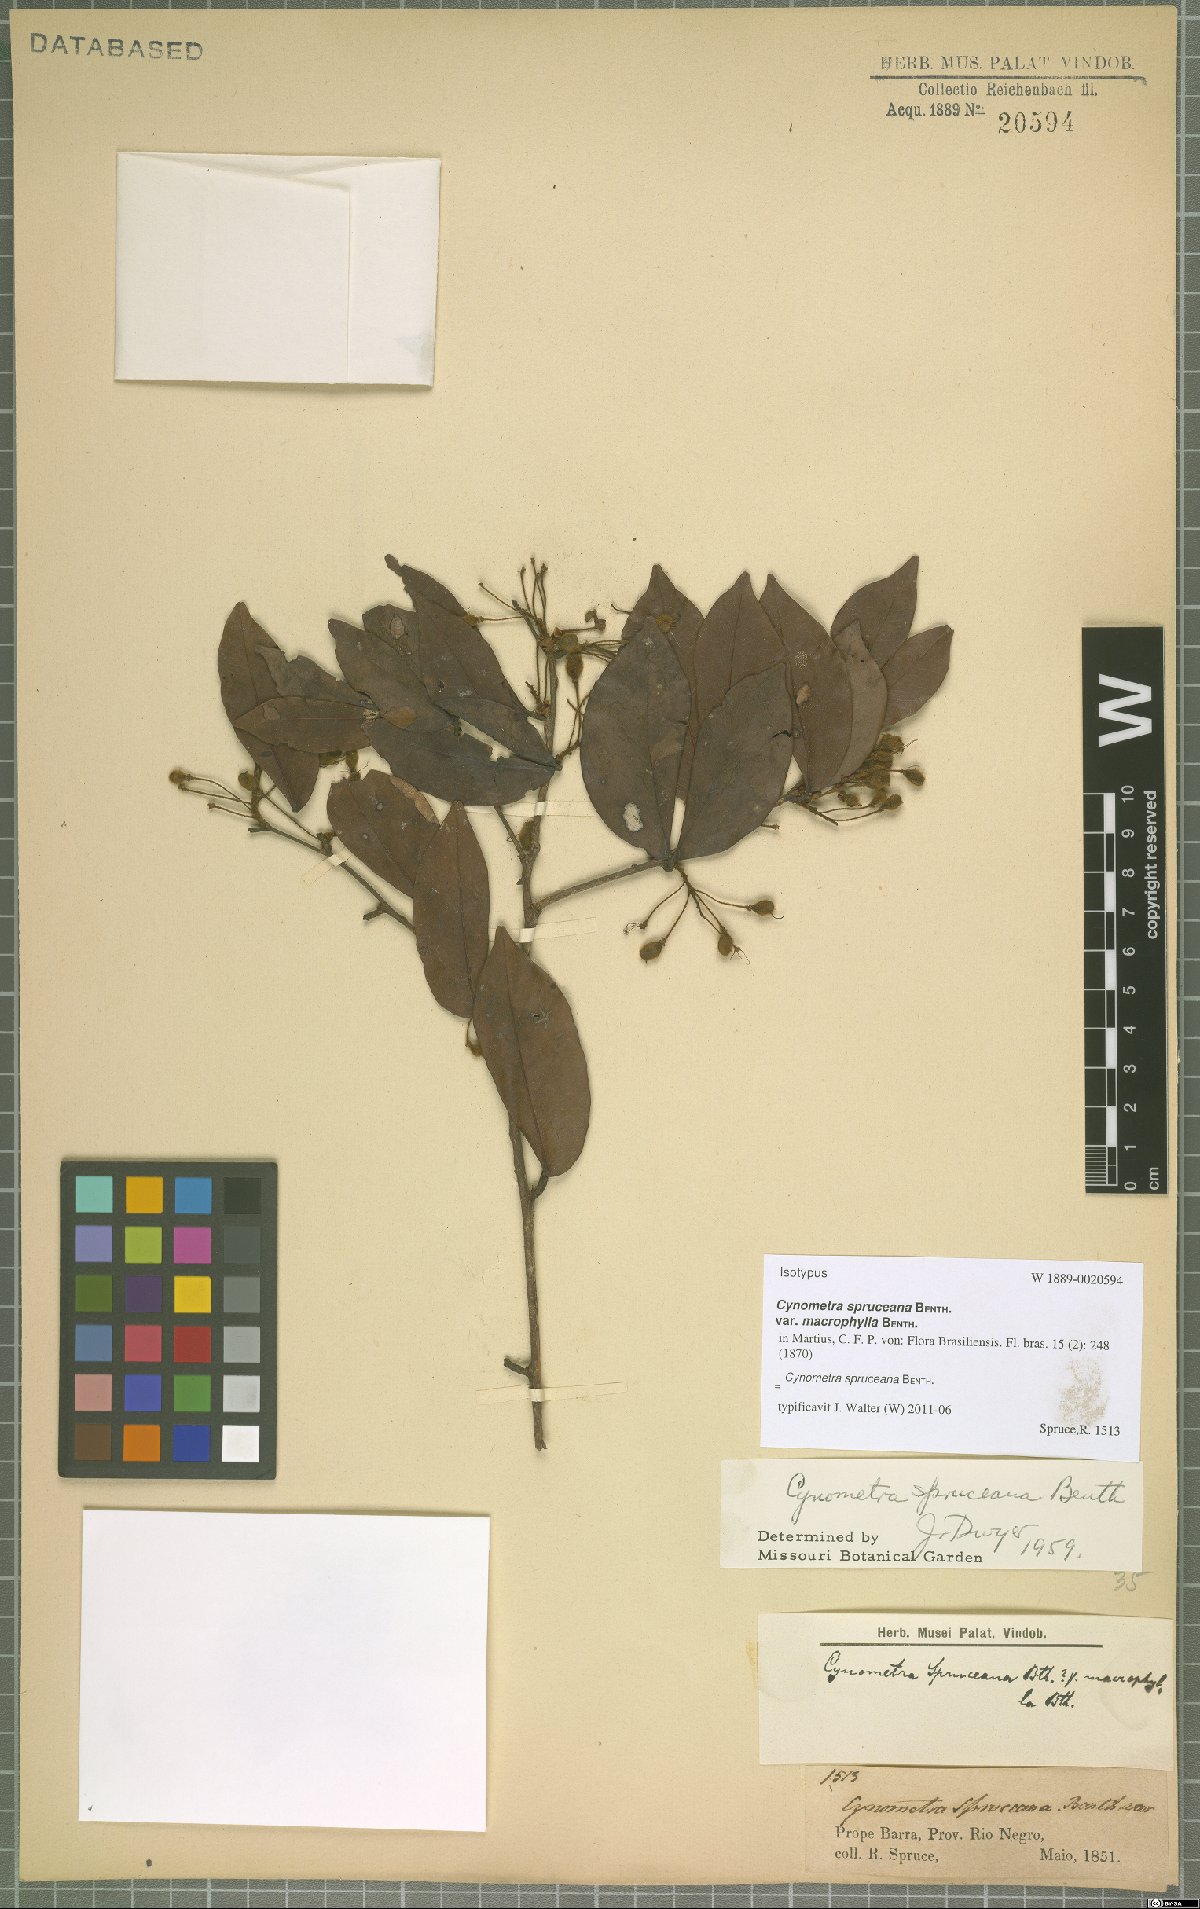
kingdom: Plantae
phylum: Tracheophyta
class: Magnoliopsida
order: Fabales
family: Fabaceae
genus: Cynometra
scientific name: Cynometra phaselocarpa
